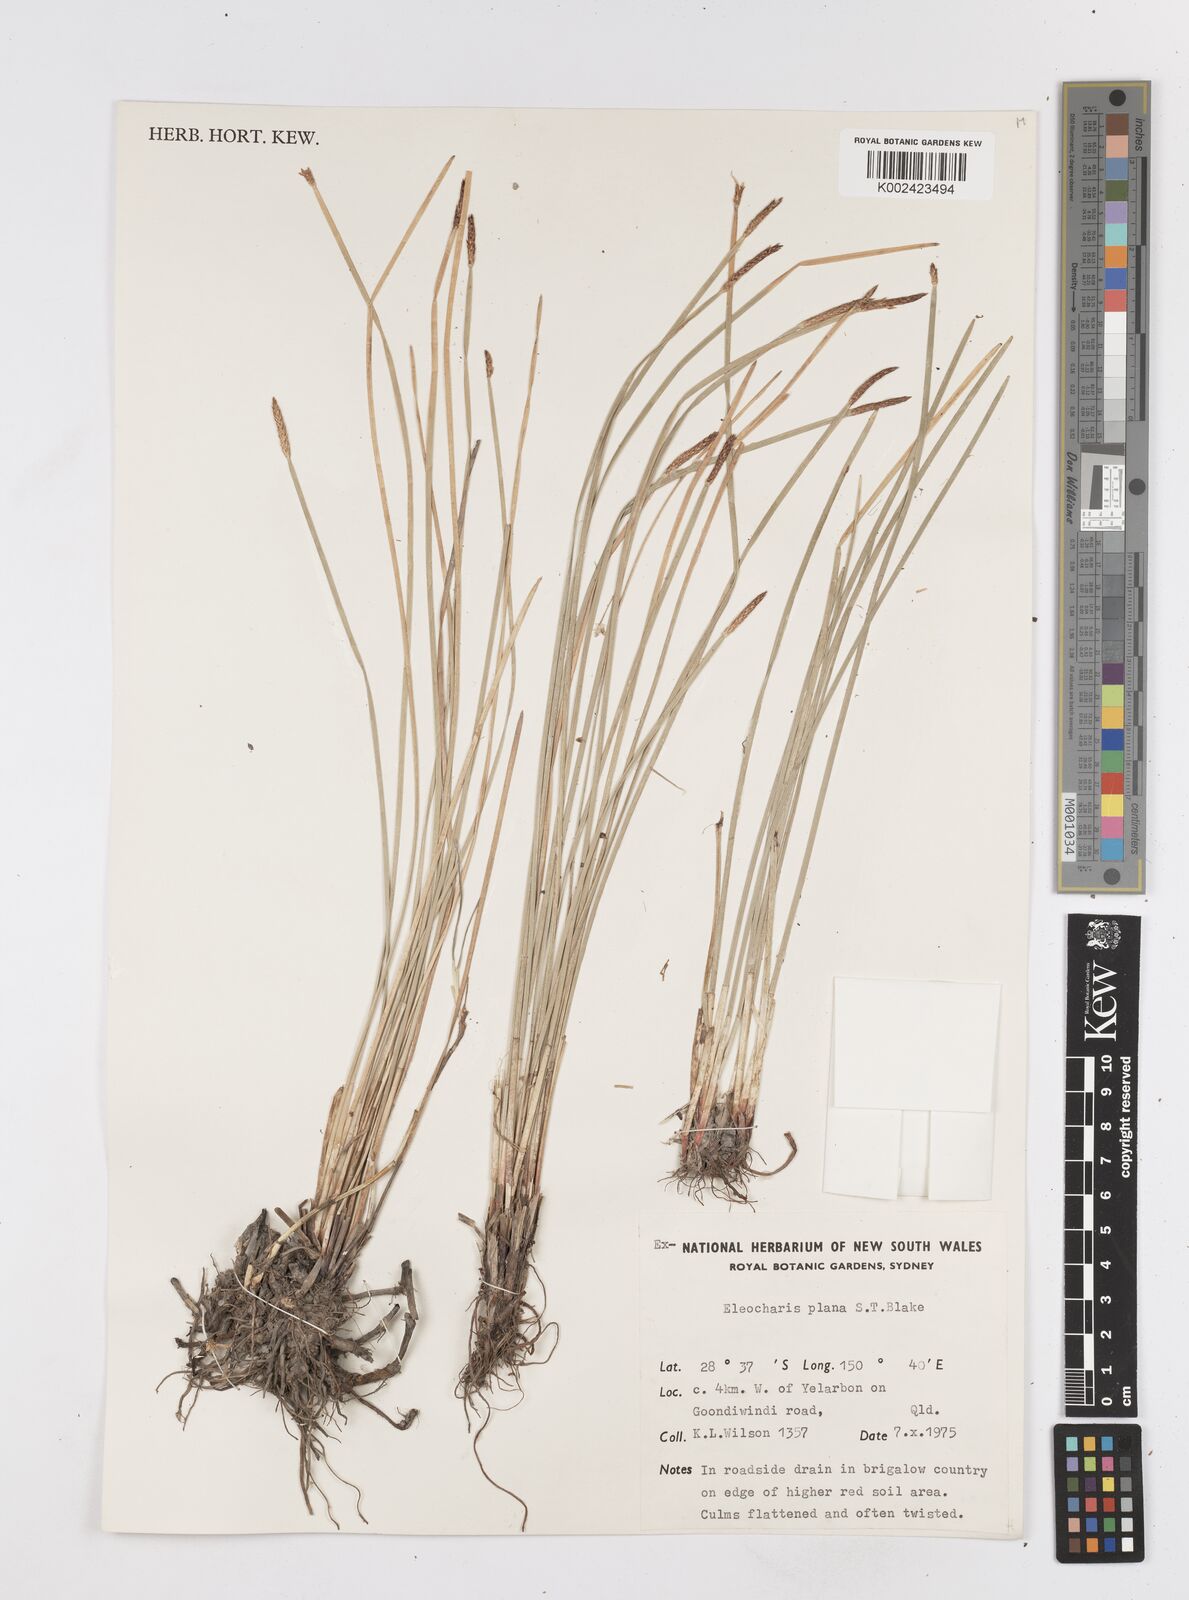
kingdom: Plantae
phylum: Tracheophyta
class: Liliopsida
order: Poales
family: Cyperaceae
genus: Eleocharis
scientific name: Eleocharis plana
